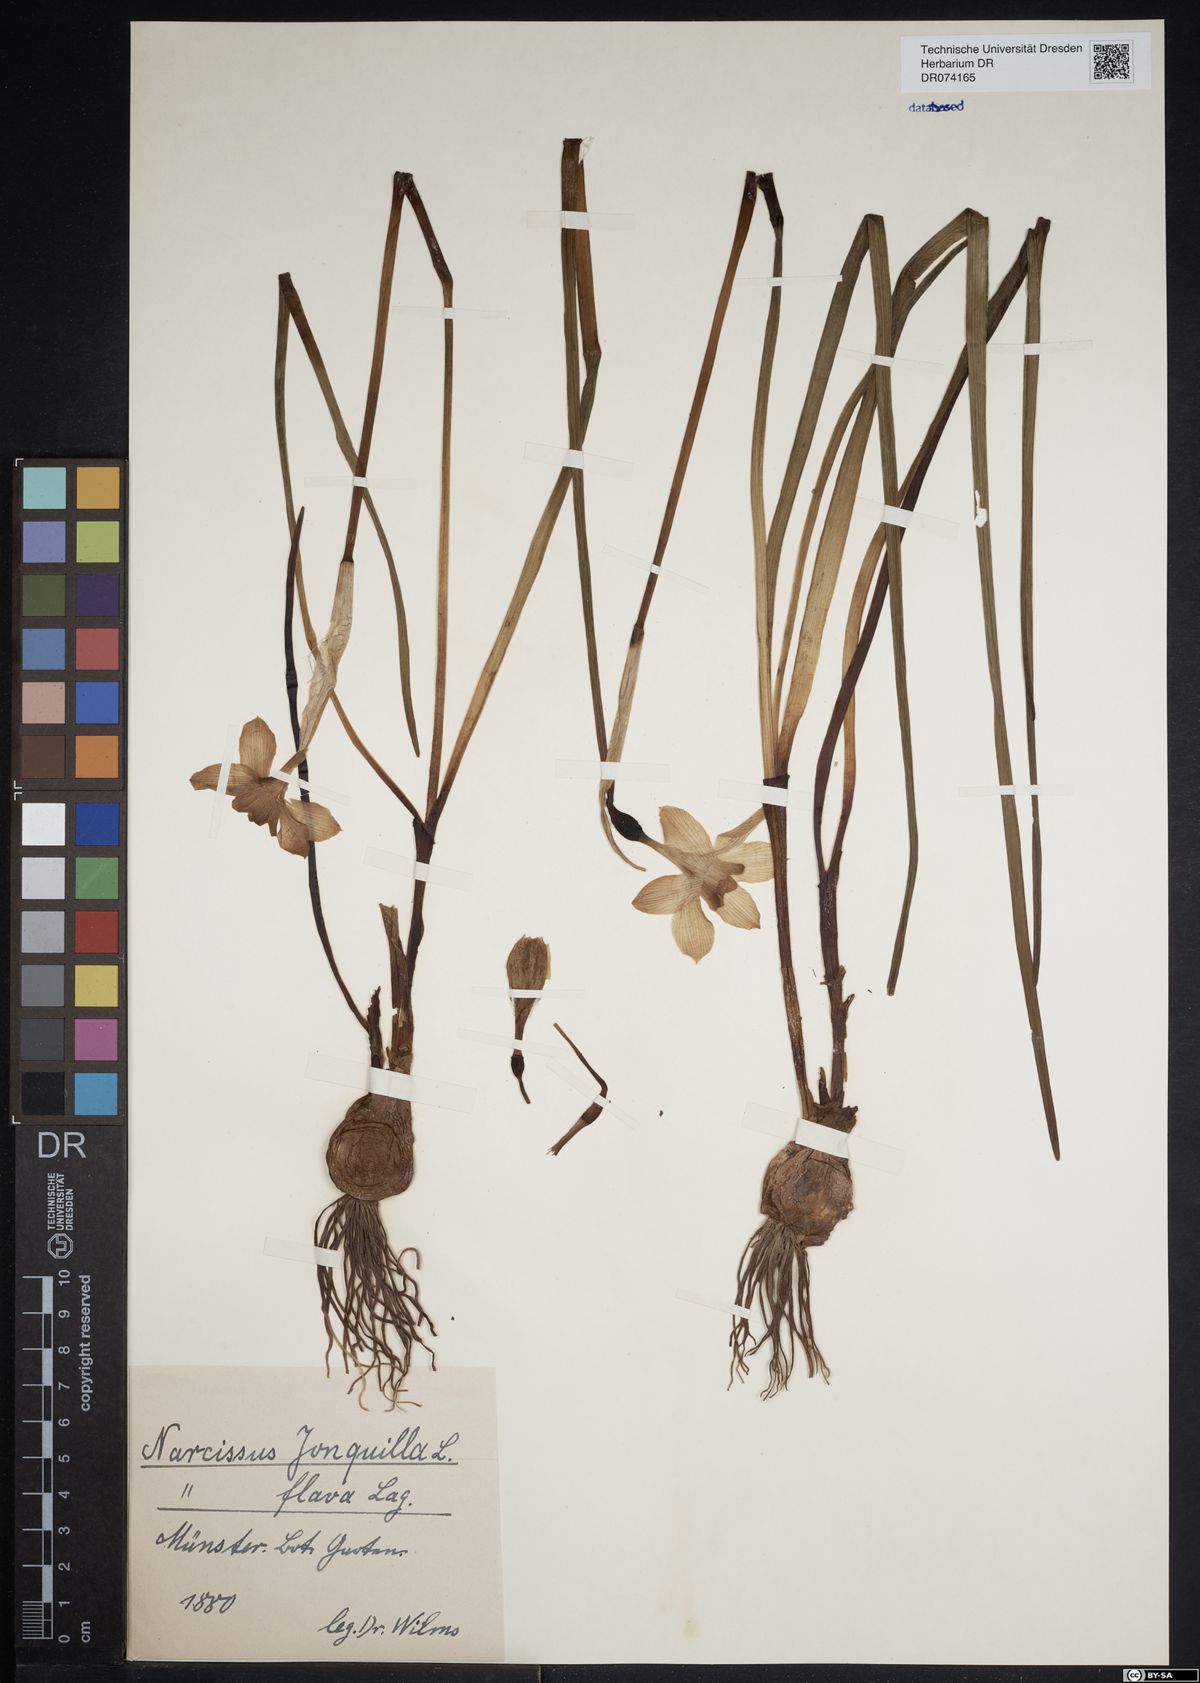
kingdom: Plantae
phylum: Tracheophyta
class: Liliopsida
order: Asparagales
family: Amaryllidaceae
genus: Narcissus
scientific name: Narcissus jonquilla
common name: Jonquil
